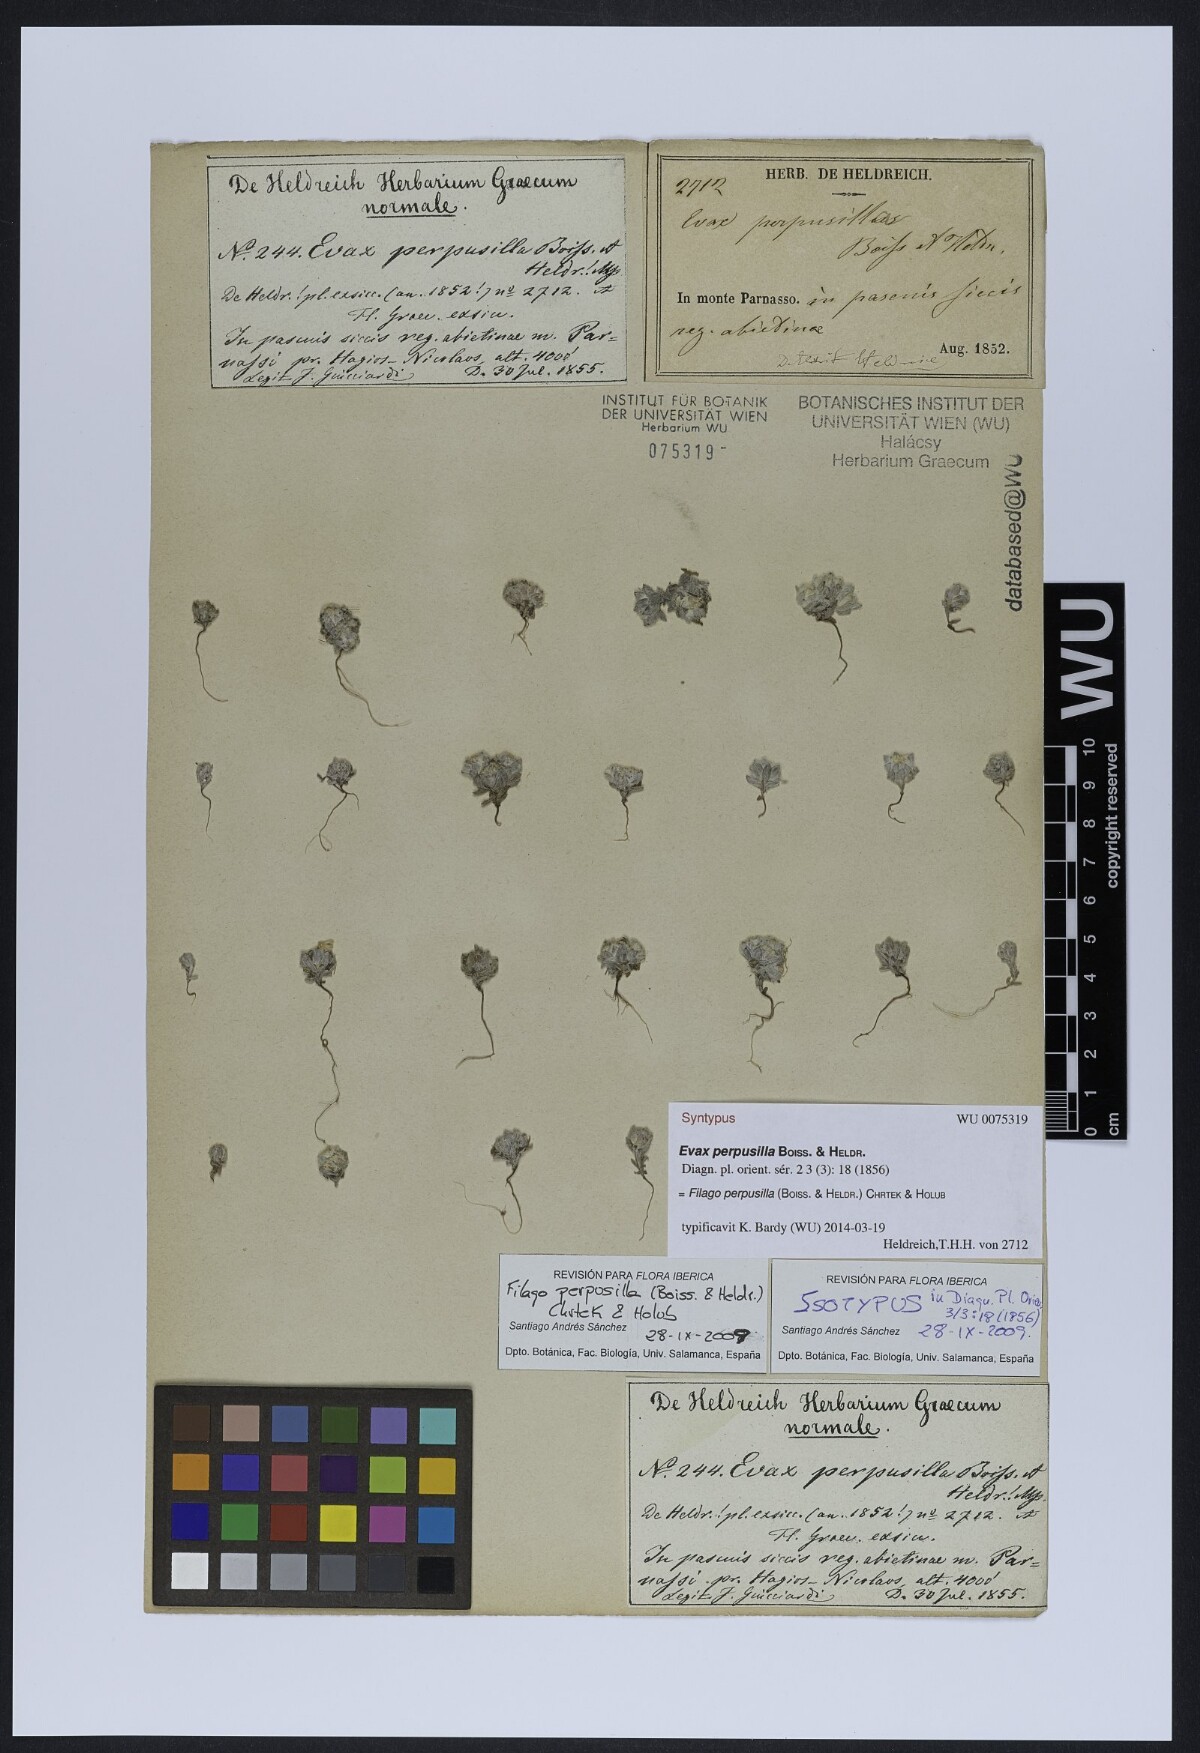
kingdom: Plantae
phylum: Tracheophyta
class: Magnoliopsida
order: Asterales
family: Asteraceae
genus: Filago
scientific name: Filago perpusilla
